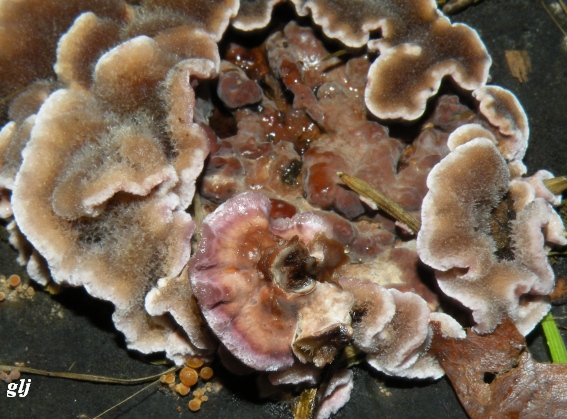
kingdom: Fungi
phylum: Basidiomycota
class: Agaricomycetes
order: Agaricales
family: Cyphellaceae
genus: Chondrostereum
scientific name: Chondrostereum purpureum
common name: purpurlædersvamp
